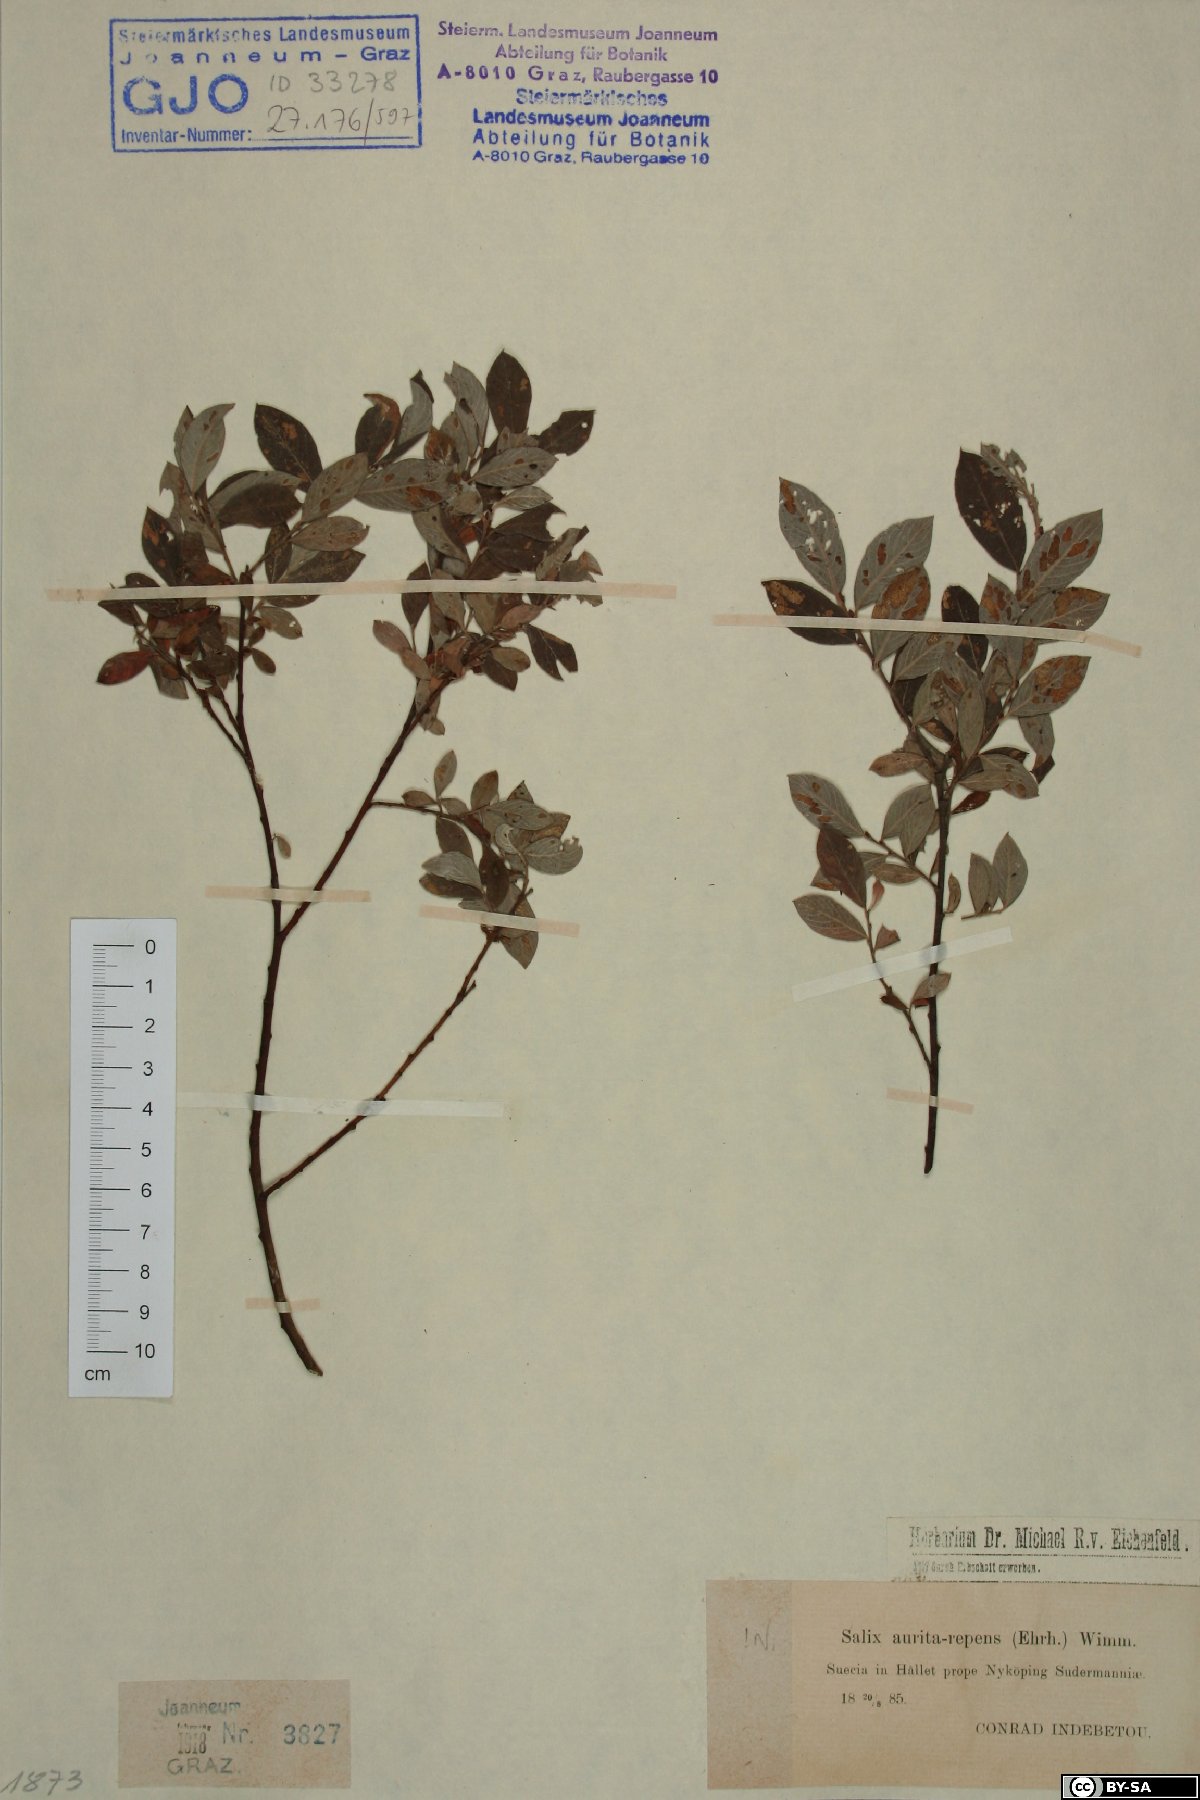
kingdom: Plantae
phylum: Tracheophyta
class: Magnoliopsida
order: Malpighiales
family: Salicaceae
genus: Salix
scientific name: Salix aurita
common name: Eared willow
